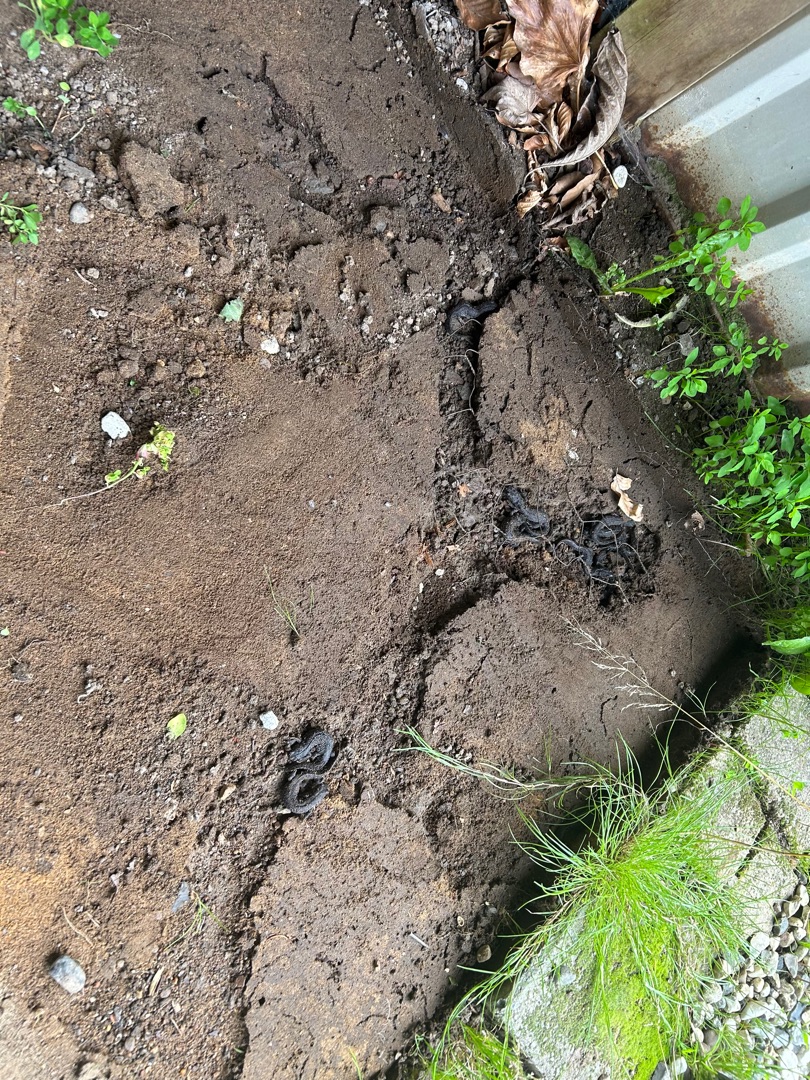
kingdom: Animalia
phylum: Chordata
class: Amphibia
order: Caudata
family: Salamandridae
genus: Triturus
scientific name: Triturus cristatus
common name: Stor vandsalamander
